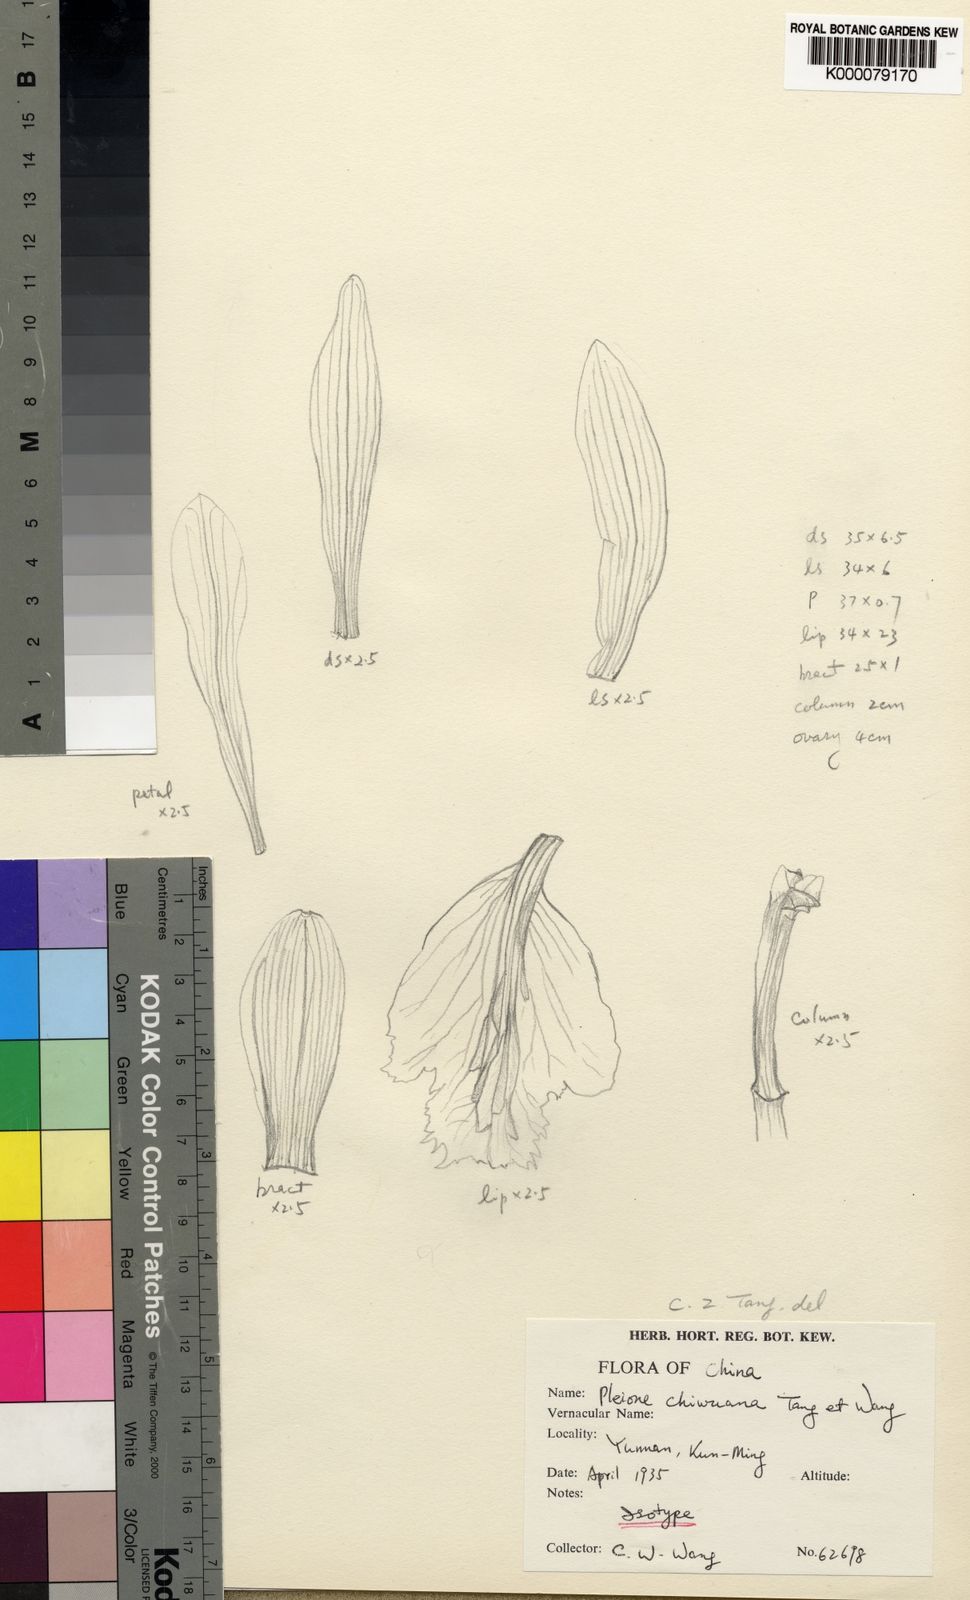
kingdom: Plantae
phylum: Tracheophyta
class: Liliopsida
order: Asparagales
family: Orchidaceae
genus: Pleione
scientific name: Pleione yunnanensis
